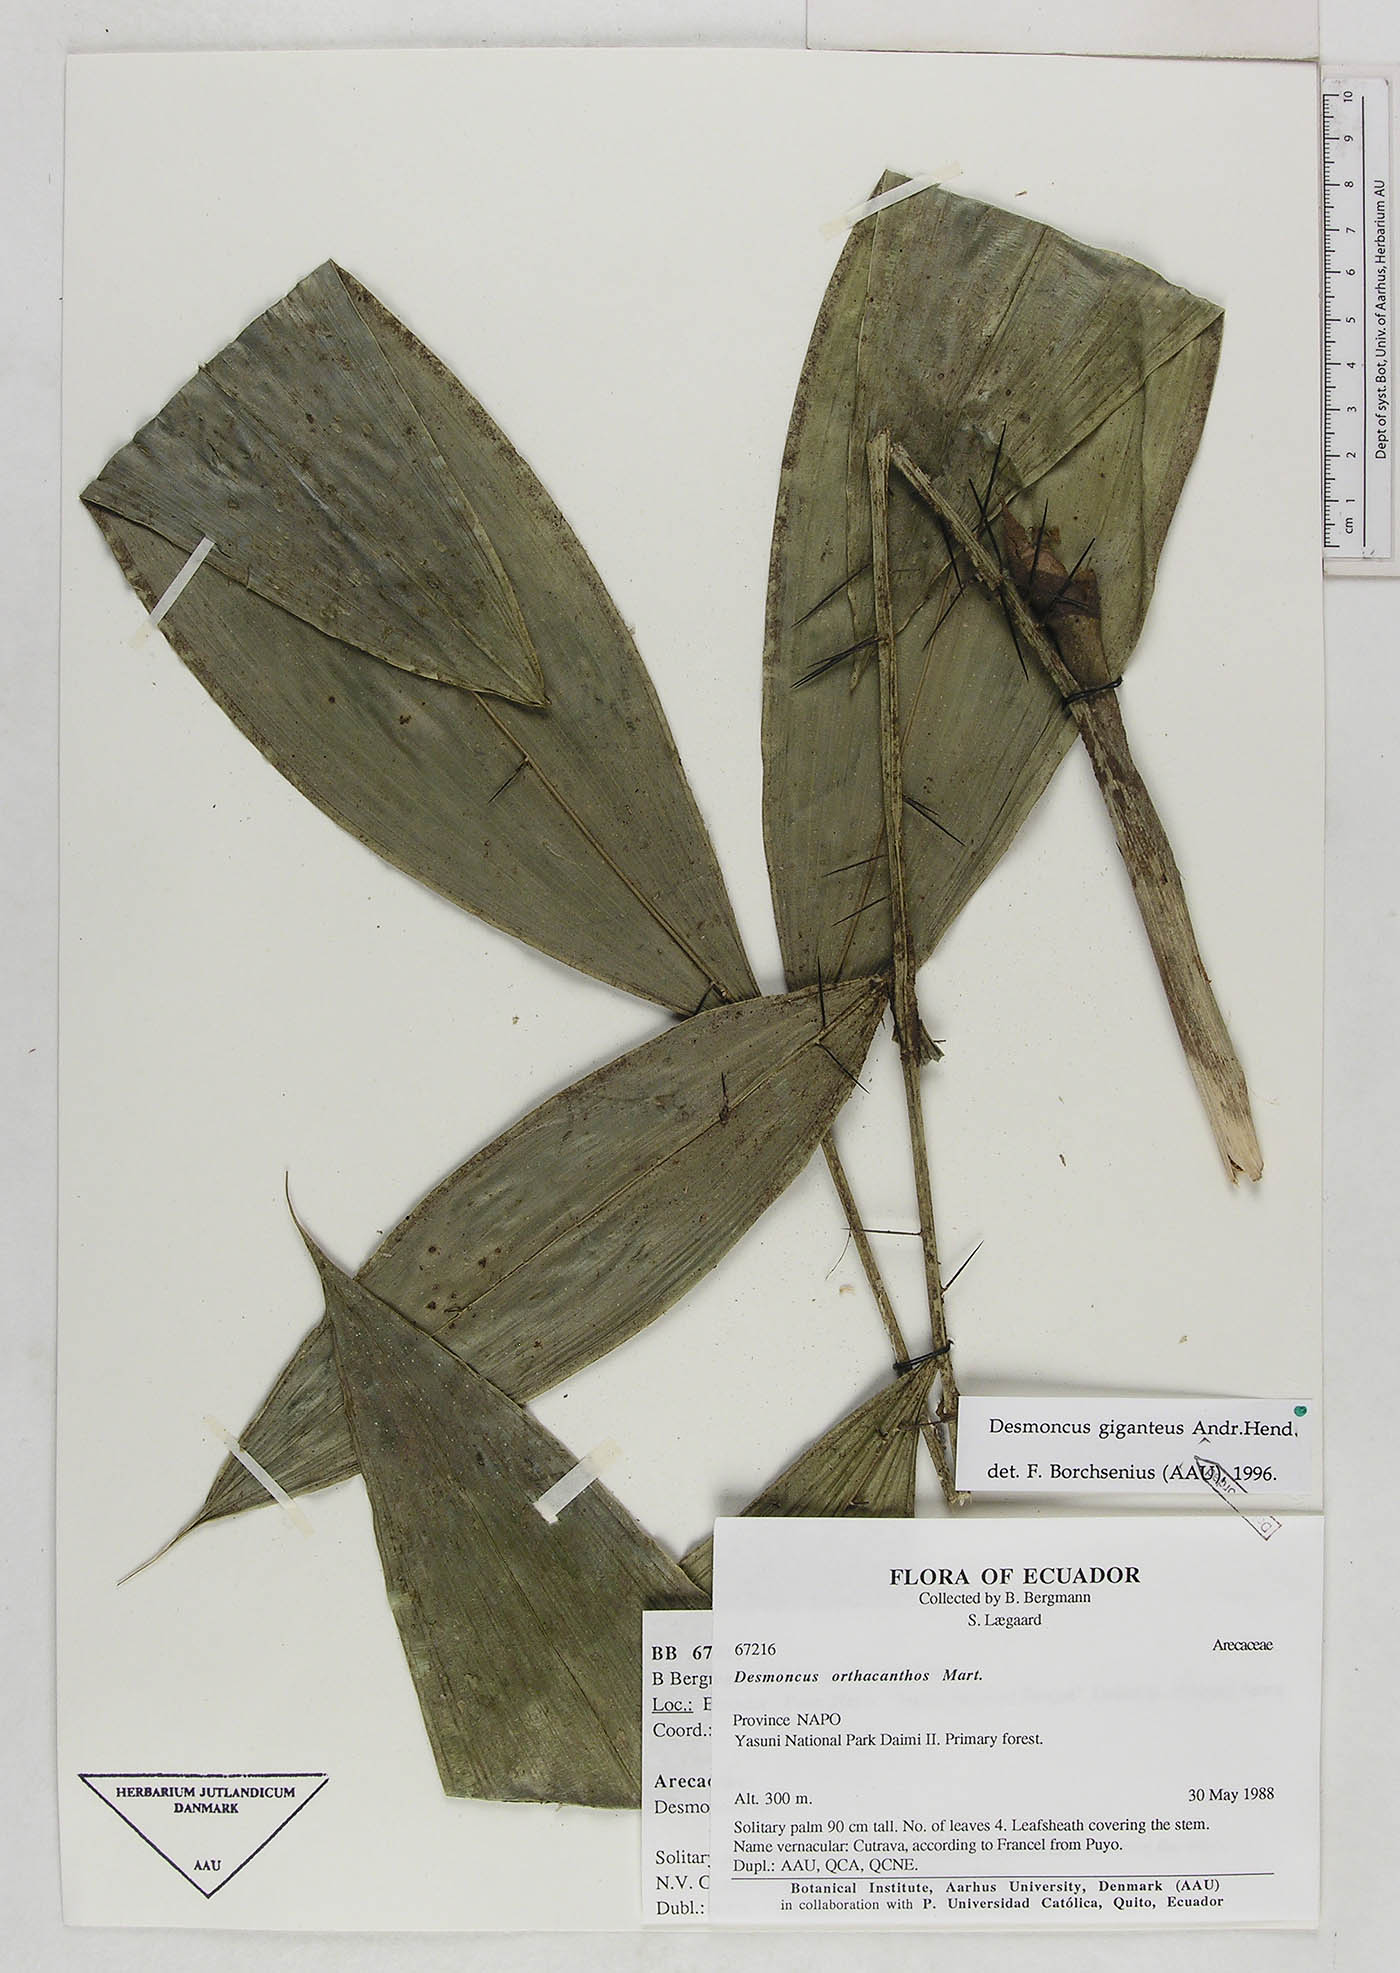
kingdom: Plantae
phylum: Tracheophyta
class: Liliopsida
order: Arecales
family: Arecaceae
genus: Desmoncus
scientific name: Desmoncus giganteus
